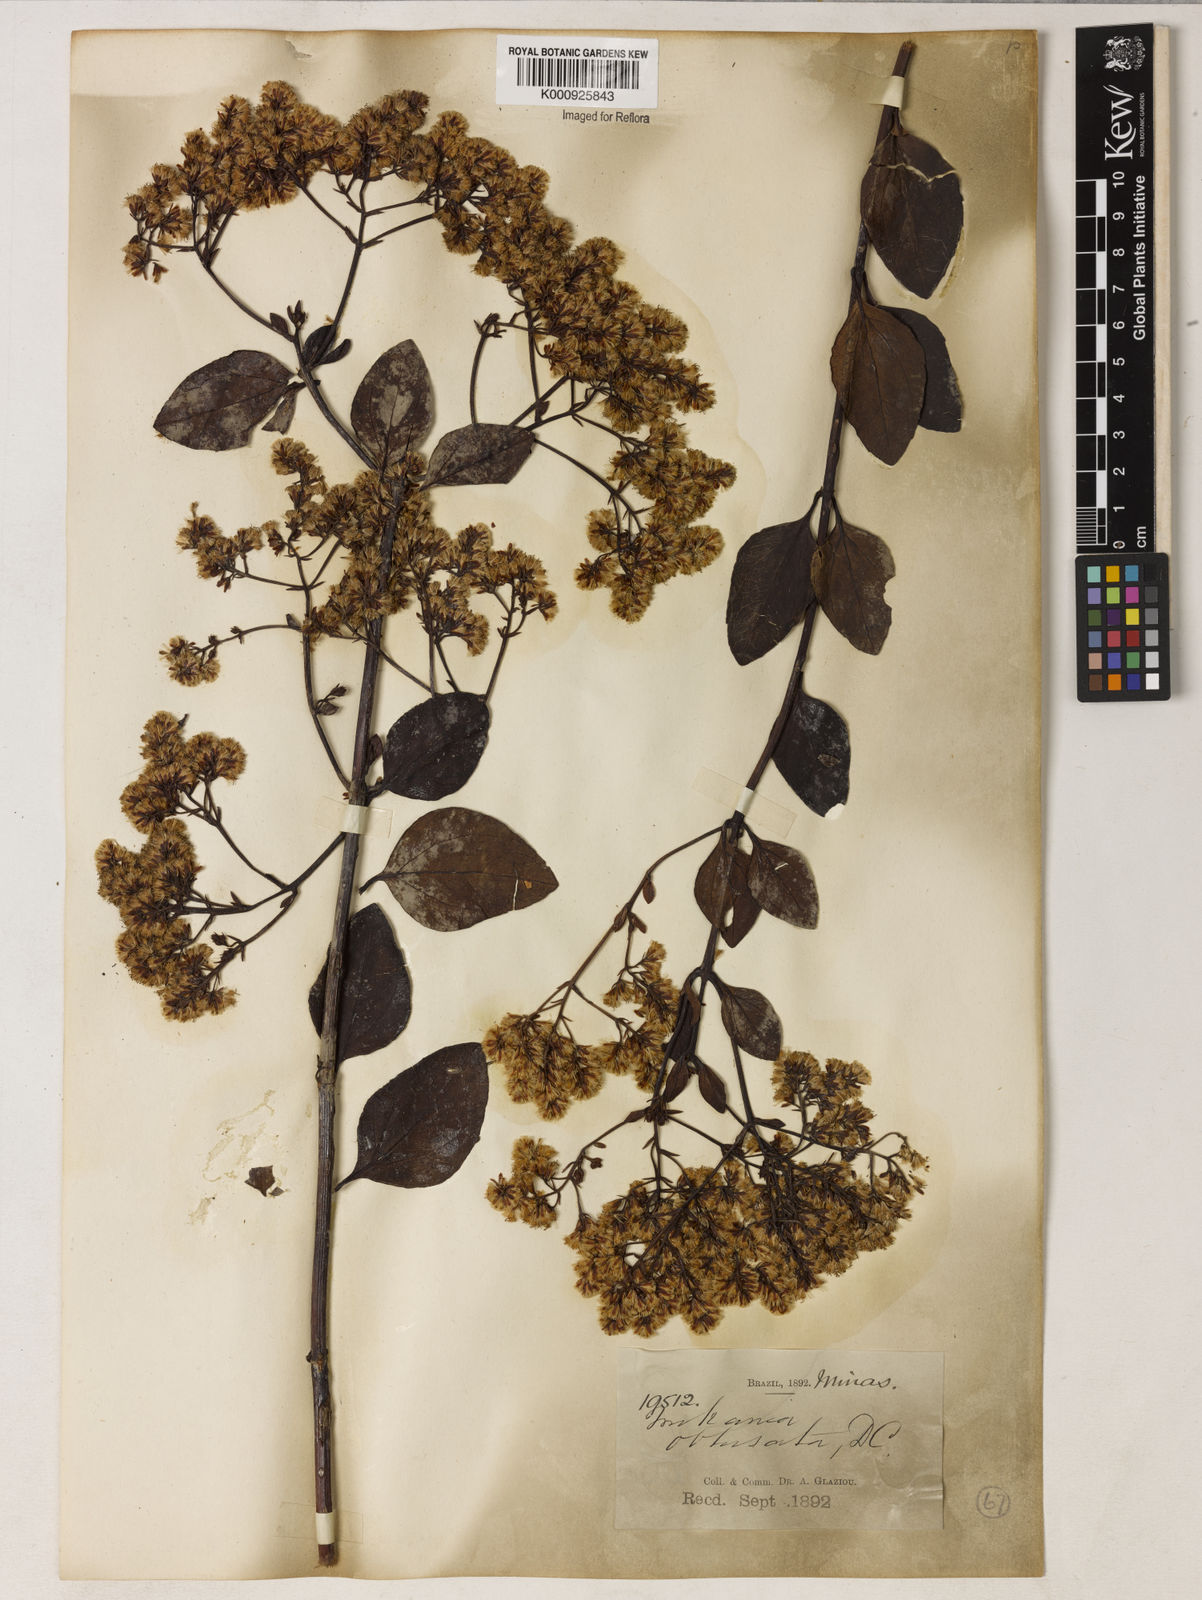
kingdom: Plantae
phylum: Tracheophyta
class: Magnoliopsida
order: Asterales
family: Asteraceae
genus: Mikania
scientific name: Mikania obtusata
